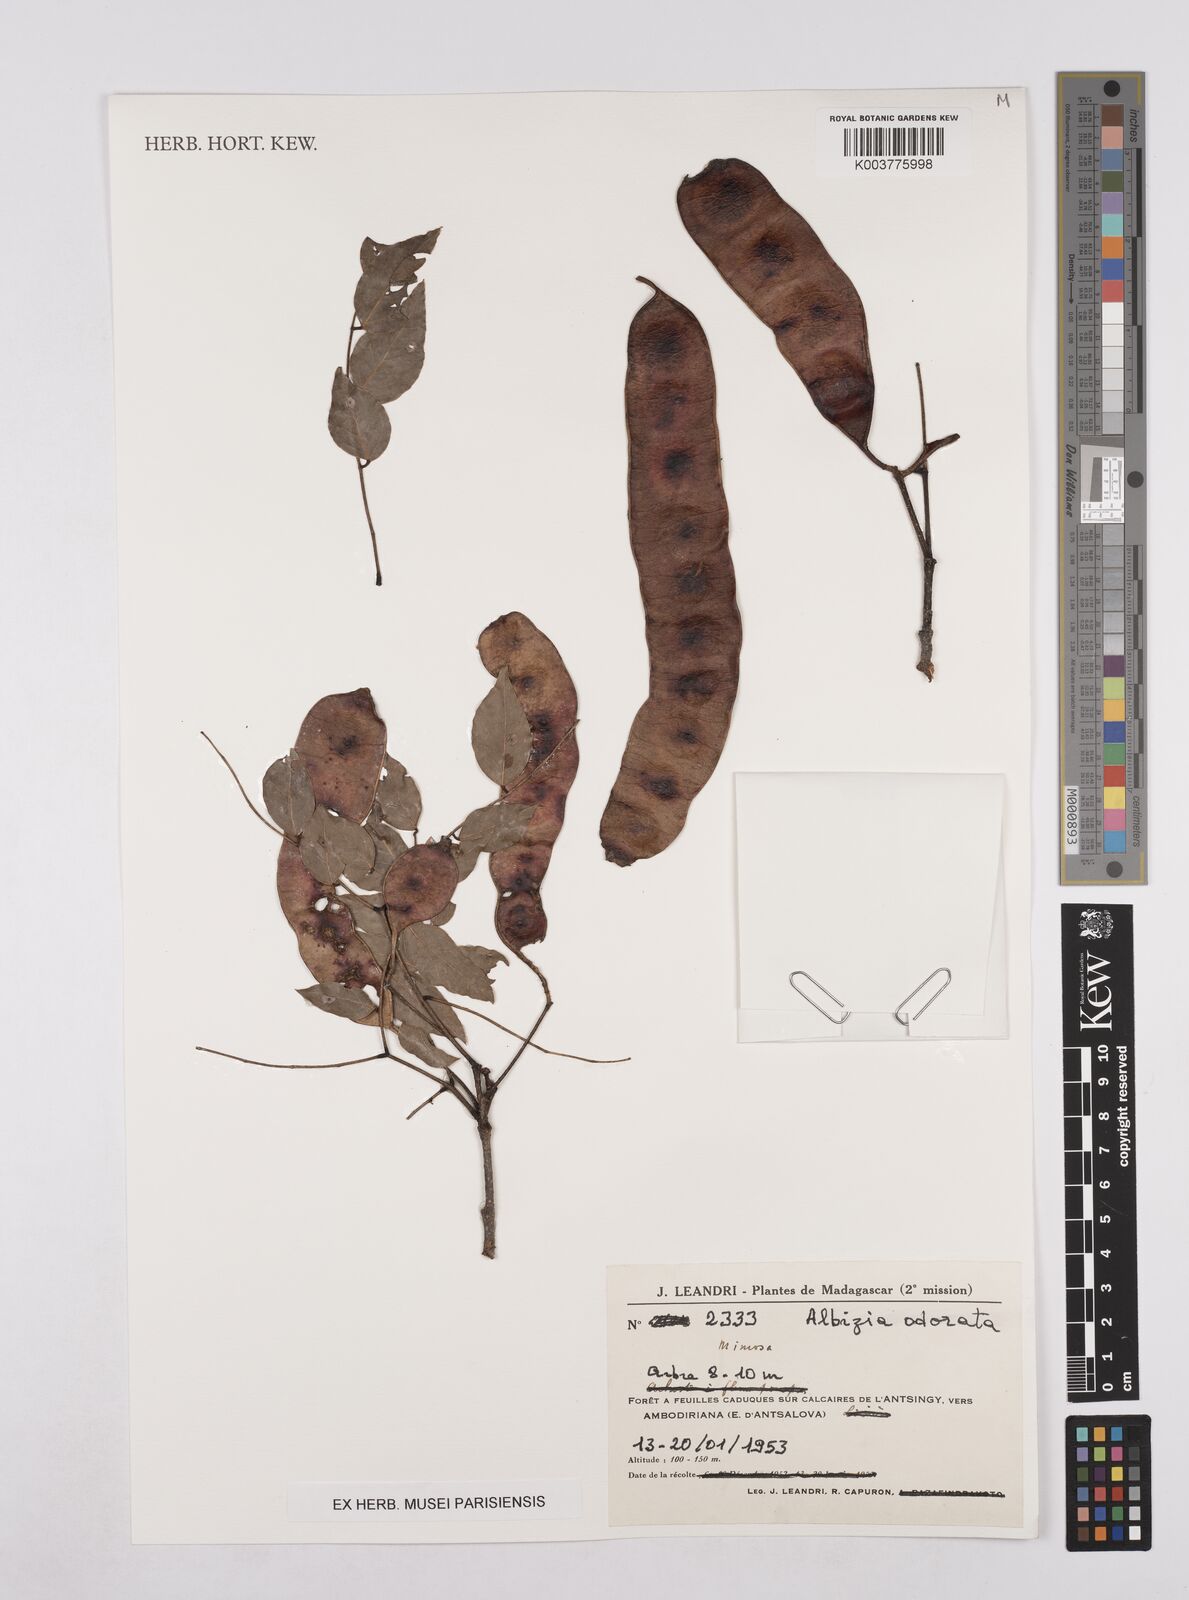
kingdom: Plantae
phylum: Tracheophyta
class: Magnoliopsida
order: Fabales
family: Fabaceae
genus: Albizia
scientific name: Albizia odorata
